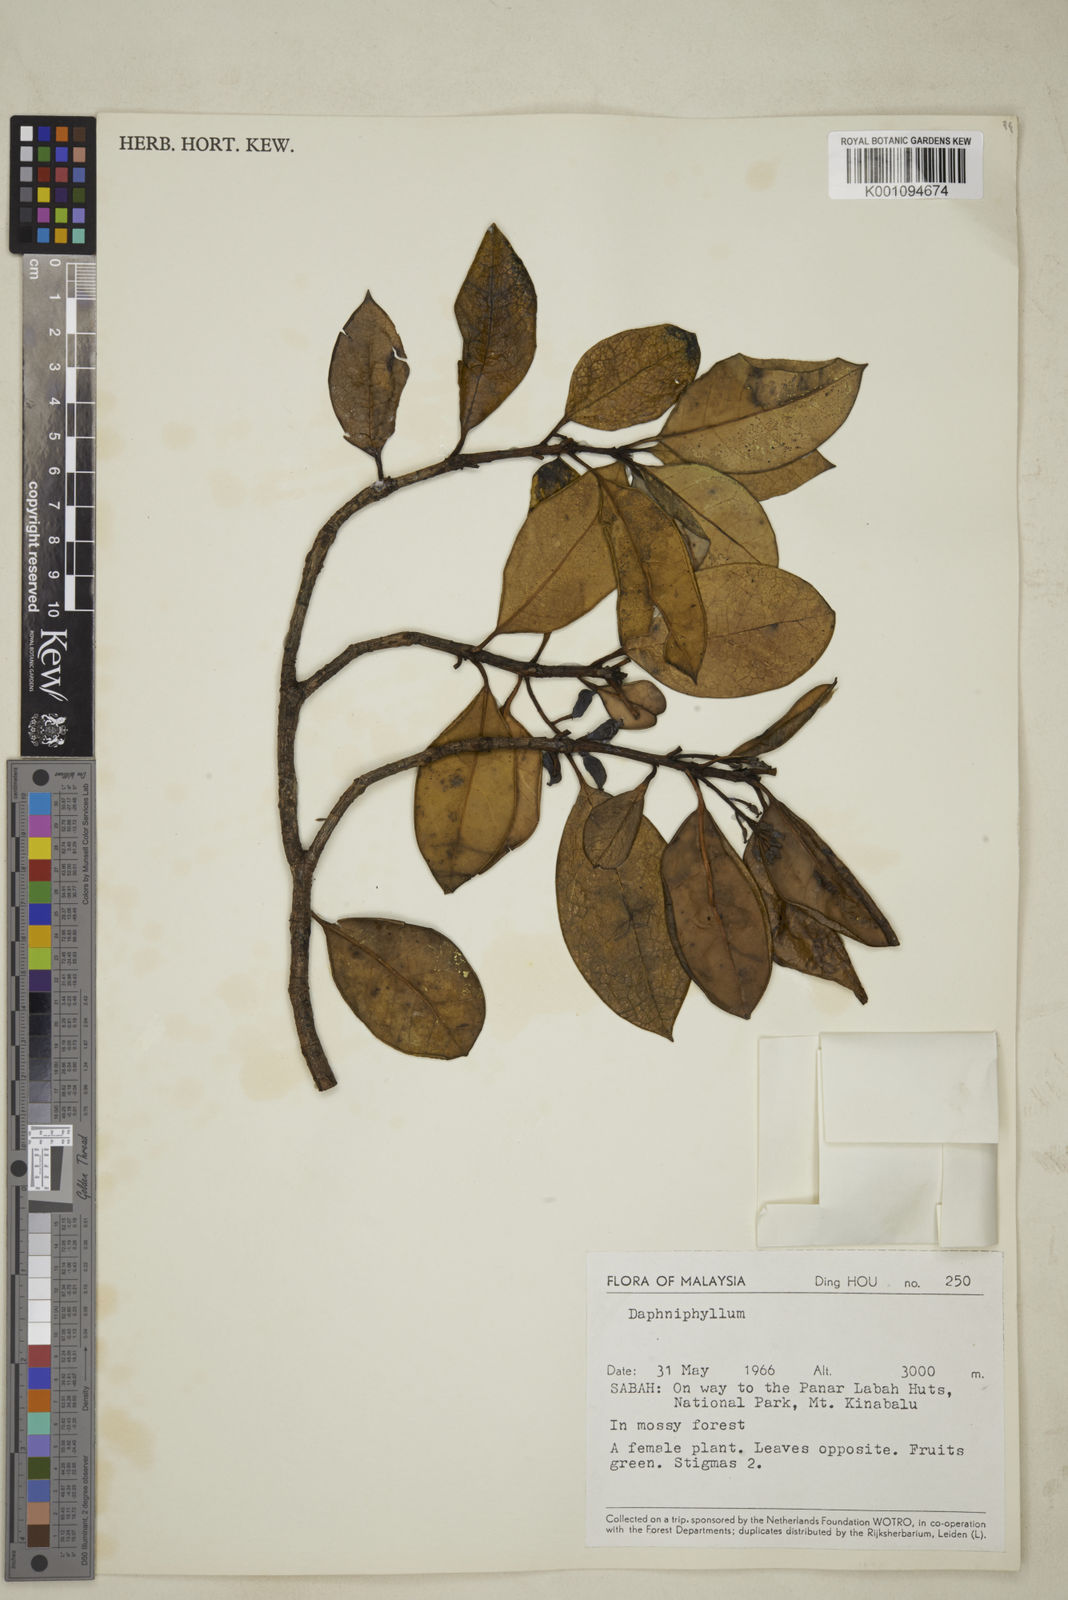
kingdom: Plantae
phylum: Tracheophyta
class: Magnoliopsida
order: Saxifragales
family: Daphniphyllaceae
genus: Daphniphyllum
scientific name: Daphniphyllum borneense
